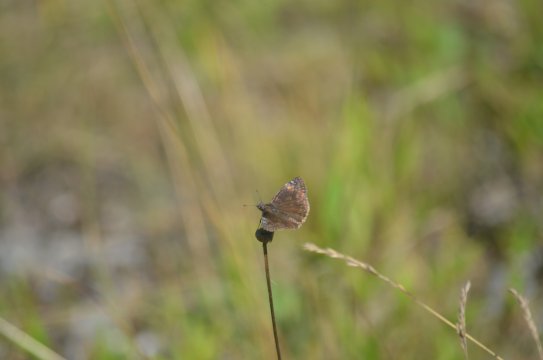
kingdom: Animalia
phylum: Arthropoda
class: Insecta
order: Lepidoptera
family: Hesperiidae
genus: Gesta
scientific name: Gesta
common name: Wild Indigo Duskywing
